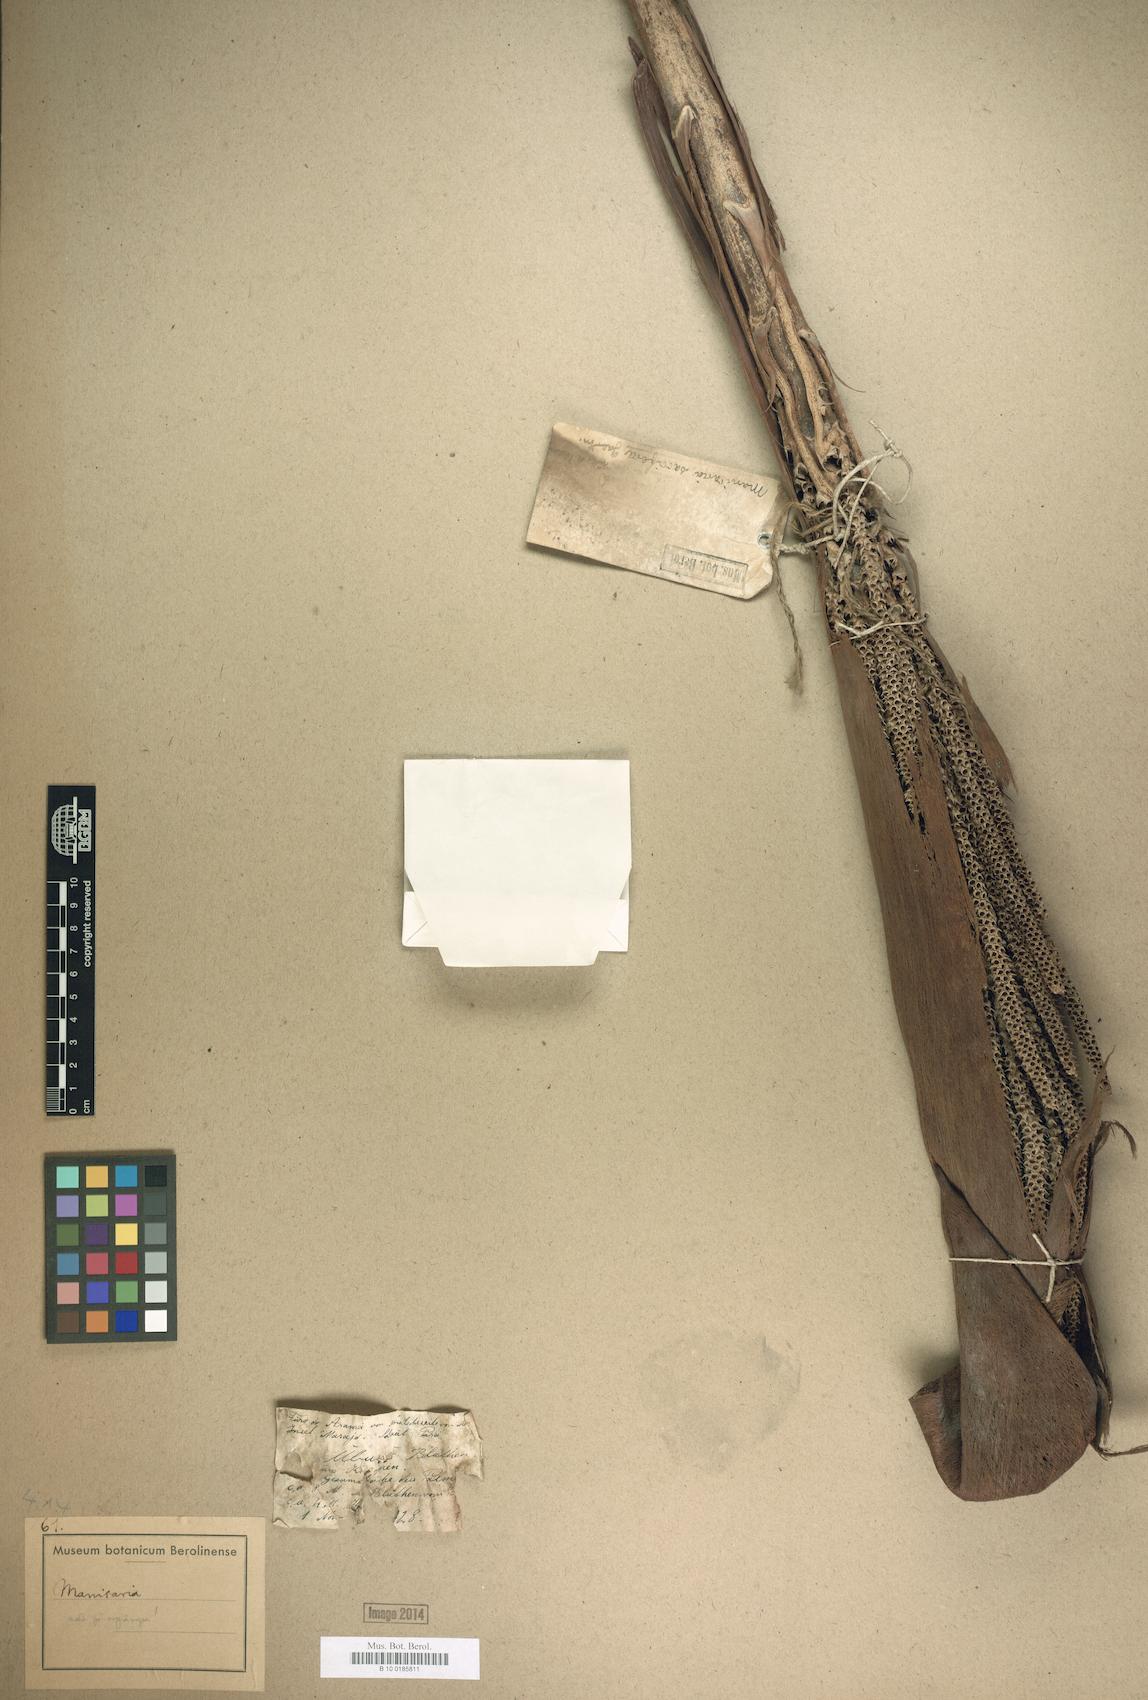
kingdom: Plantae
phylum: Tracheophyta
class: Liliopsida
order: Arecales
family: Arecaceae
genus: Manicaria
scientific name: Manicaria
